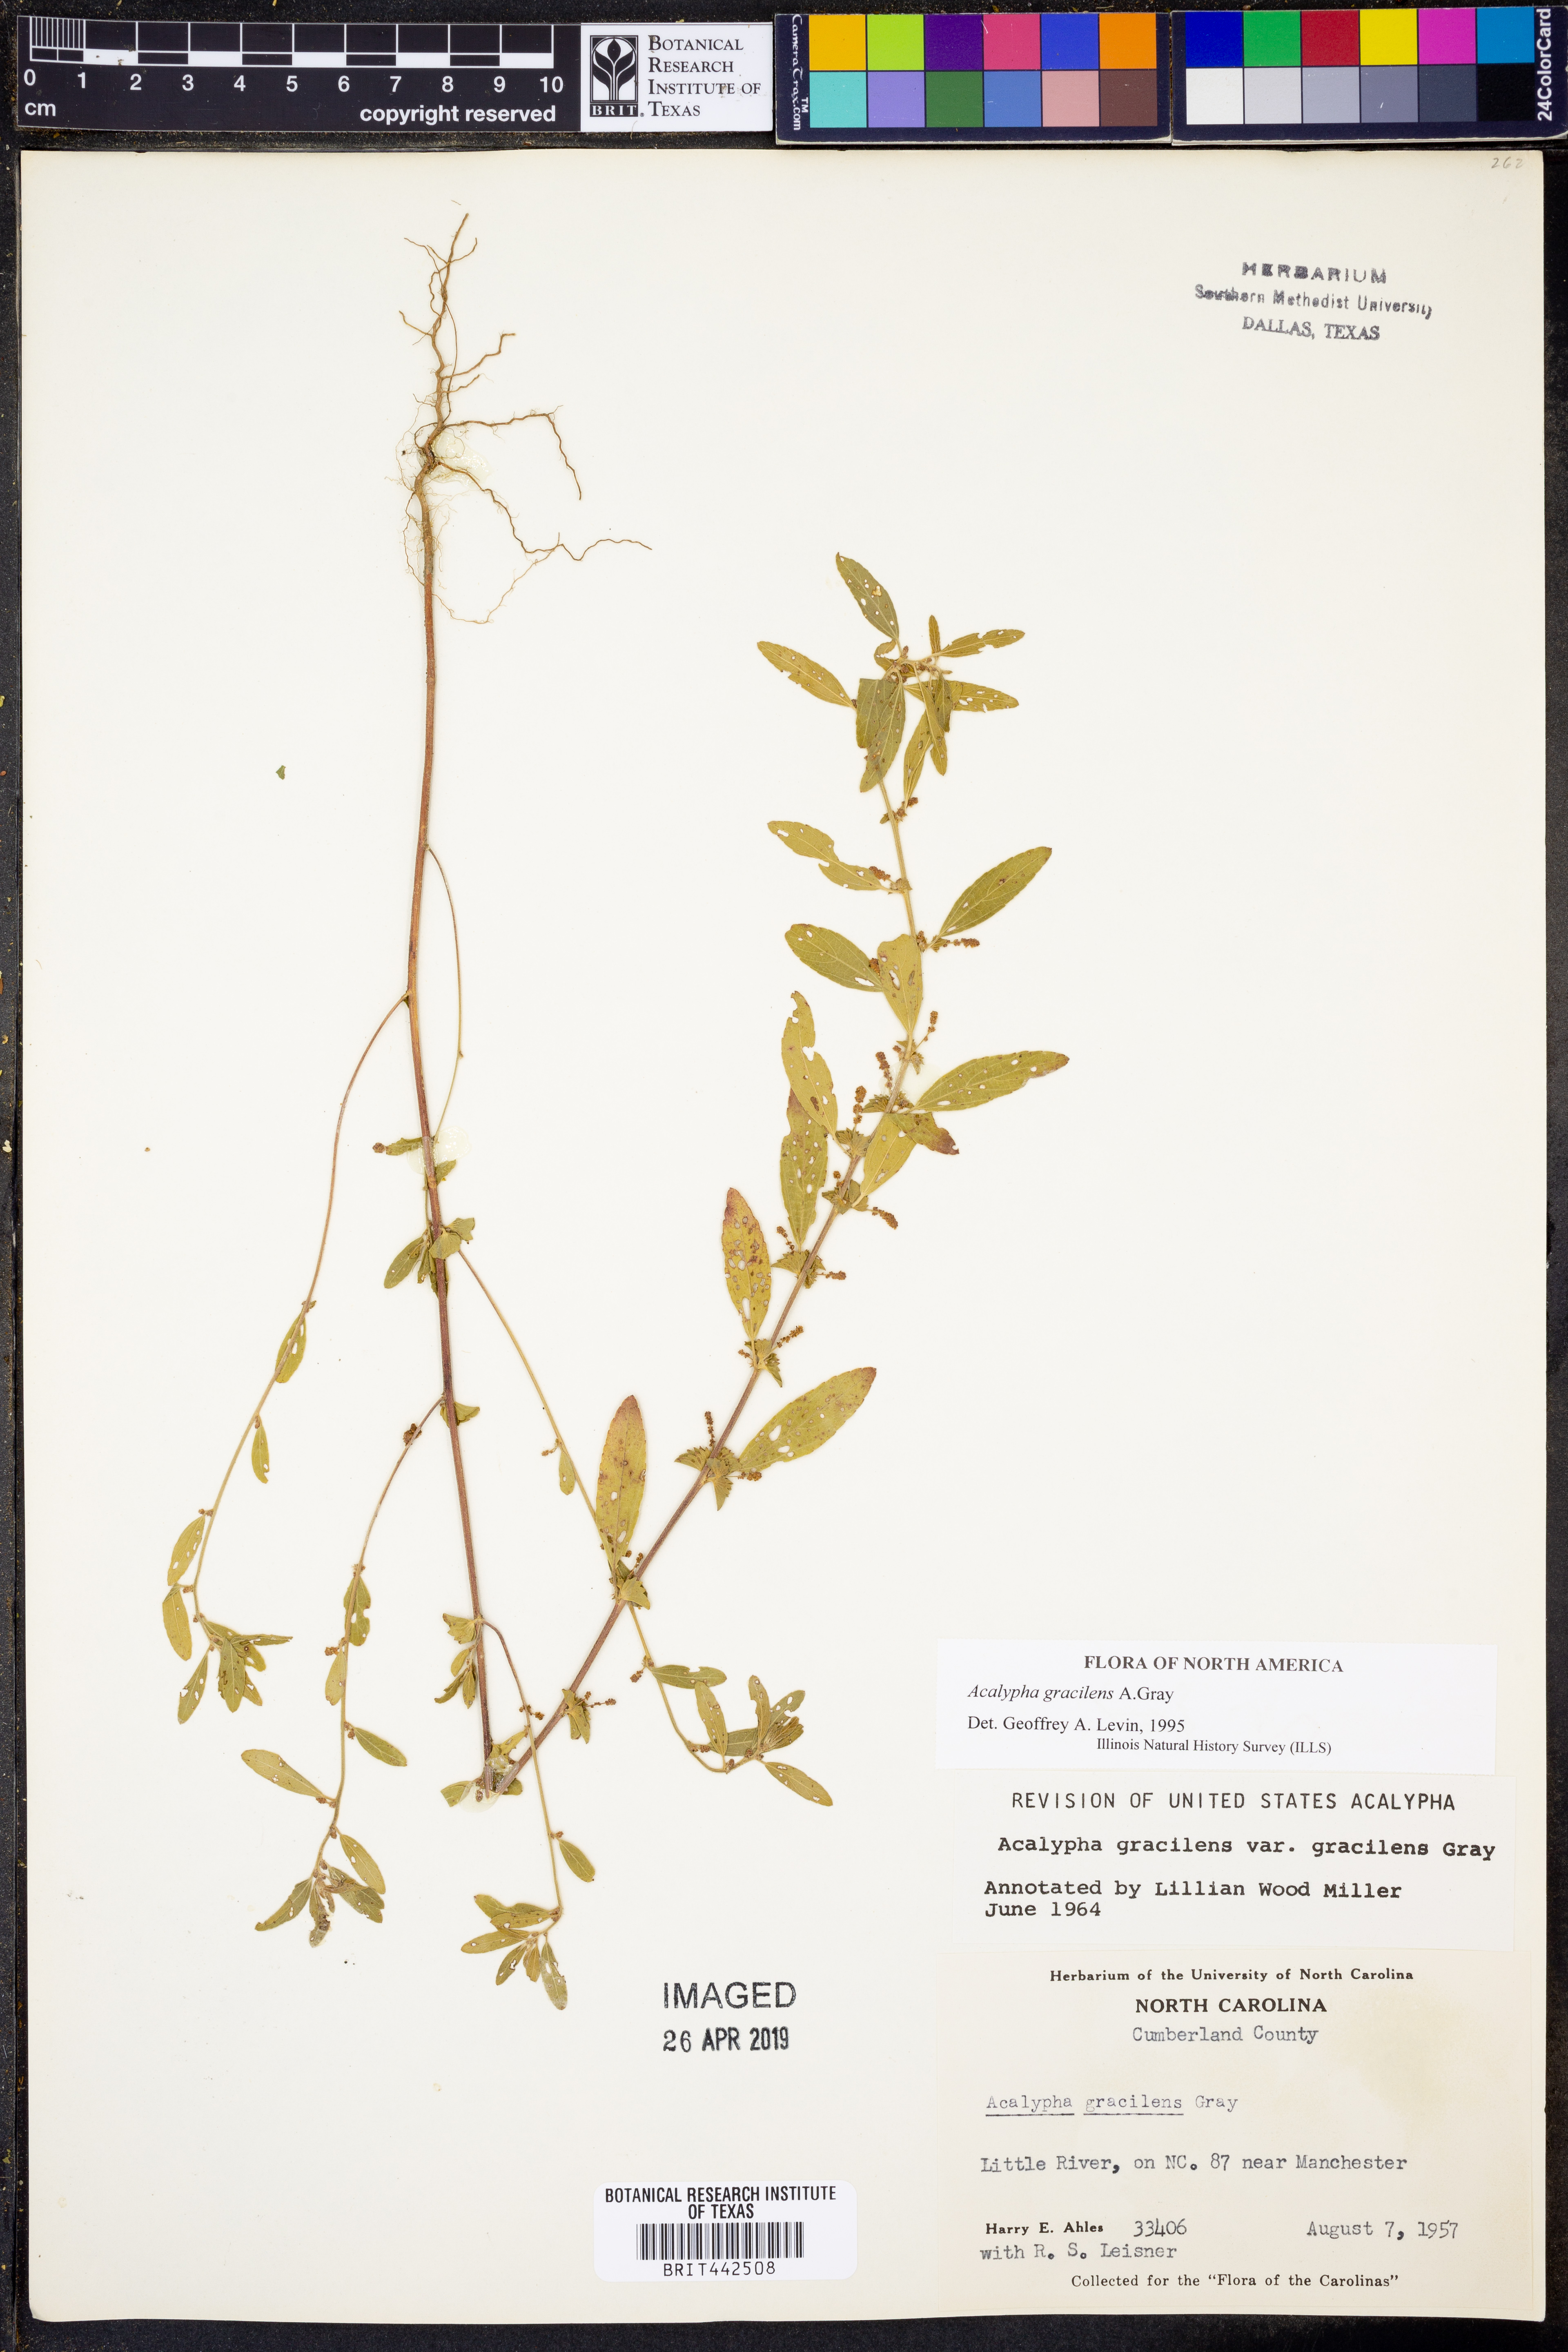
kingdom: Plantae
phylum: Tracheophyta
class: Magnoliopsida
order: Malpighiales
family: Euphorbiaceae
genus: Acalypha
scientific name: Acalypha gracilens
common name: Slender three-seeded mercury
